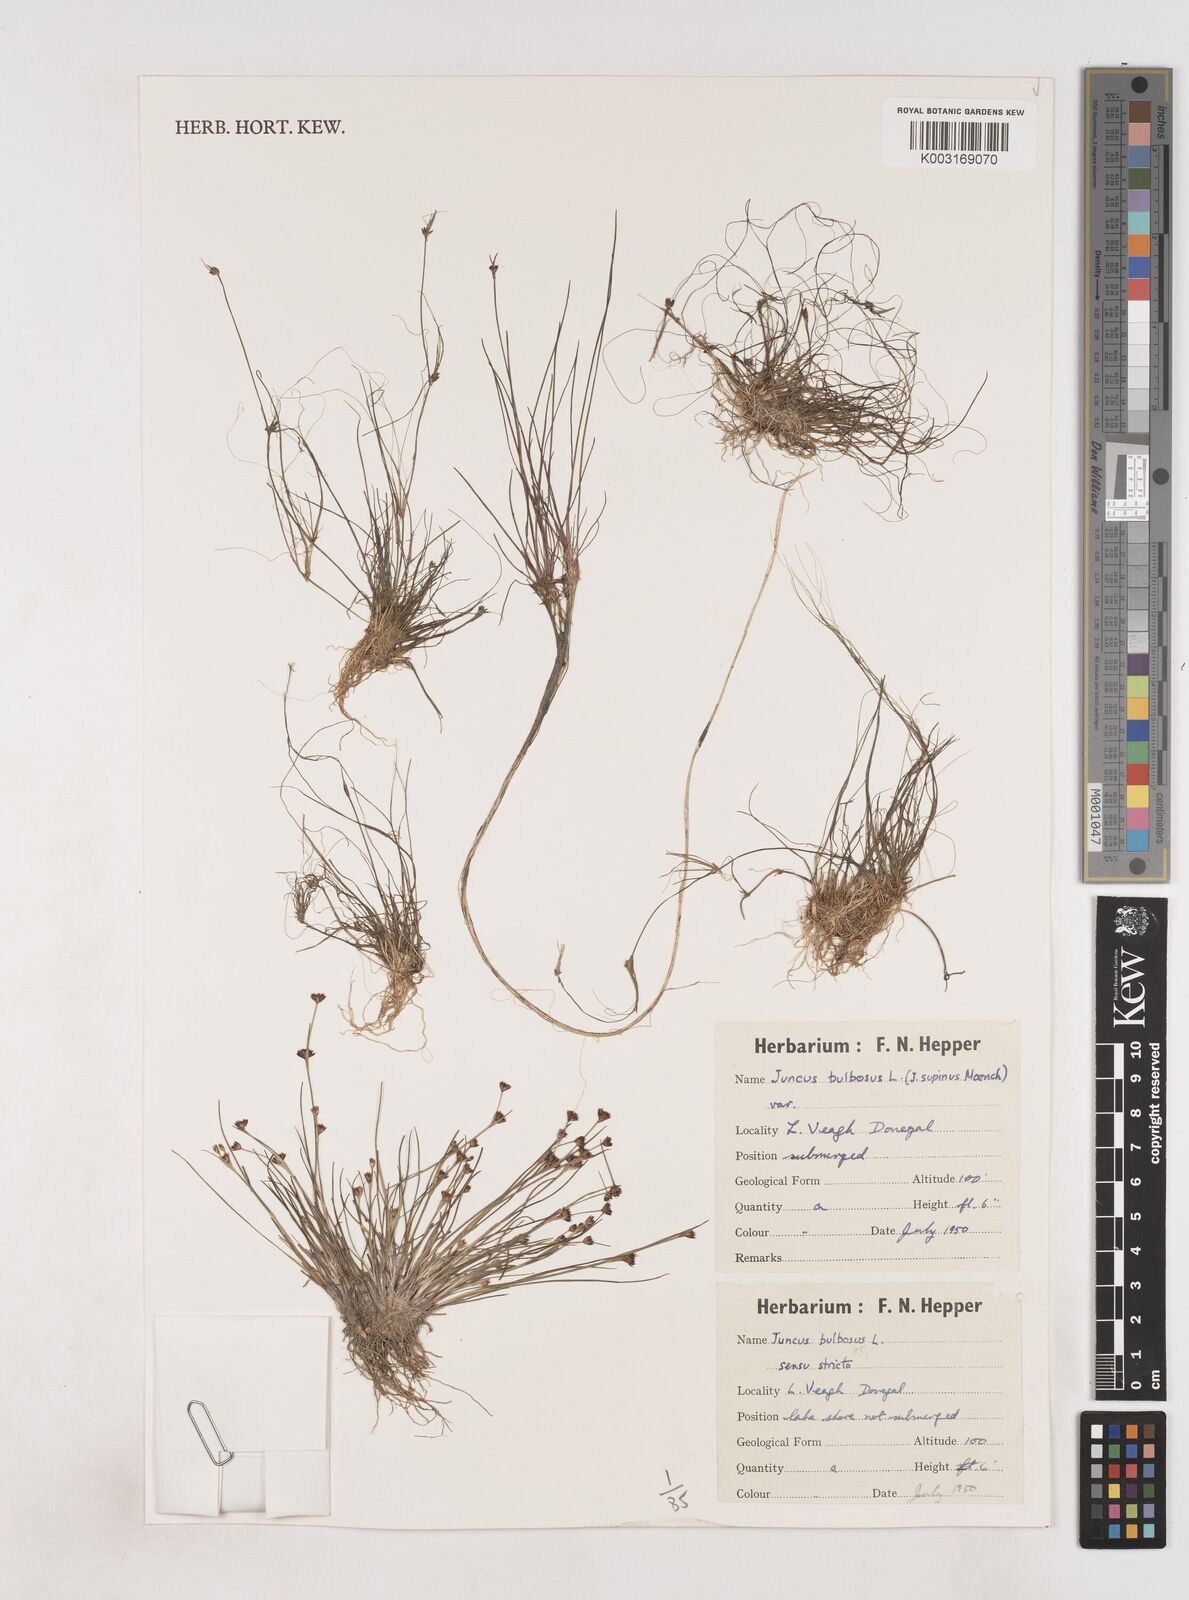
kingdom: Plantae
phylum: Tracheophyta
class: Liliopsida
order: Poales
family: Juncaceae
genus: Juncus
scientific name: Juncus bulbosus
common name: Bulbous rush
